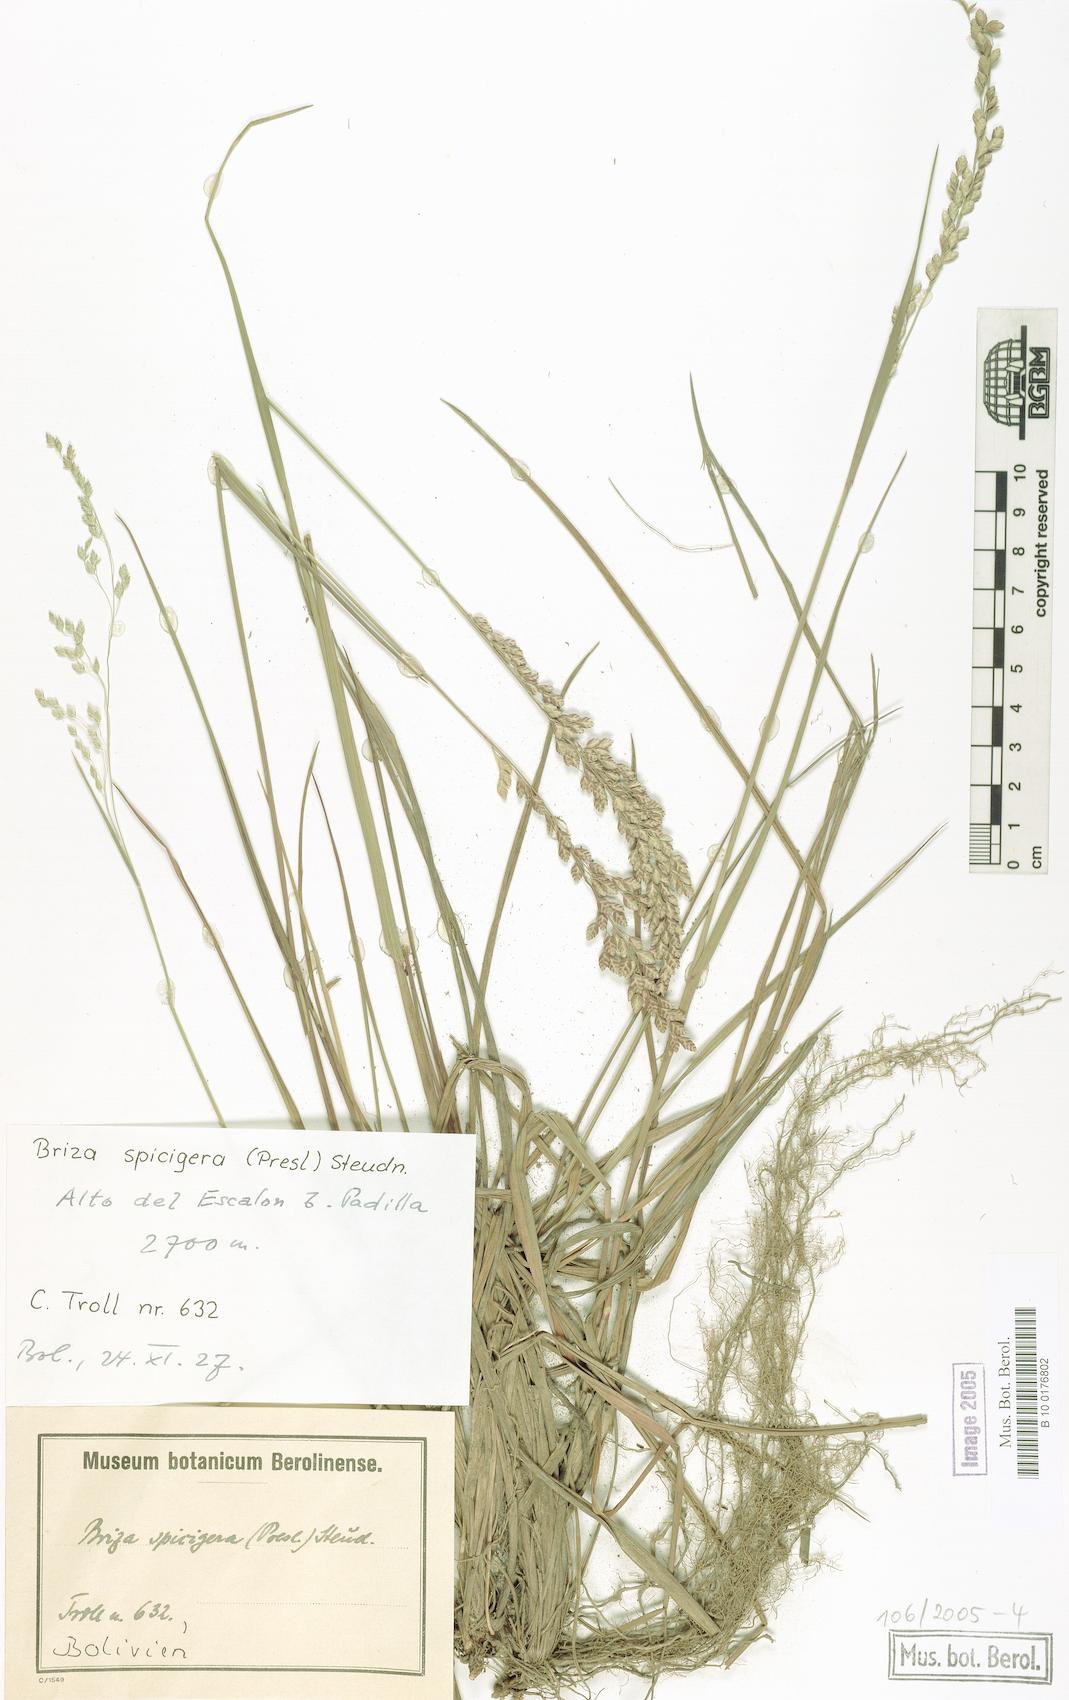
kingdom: Plantae
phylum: Tracheophyta
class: Liliopsida
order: Poales
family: Poaceae
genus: Poidium
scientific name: Poidium uniolae
